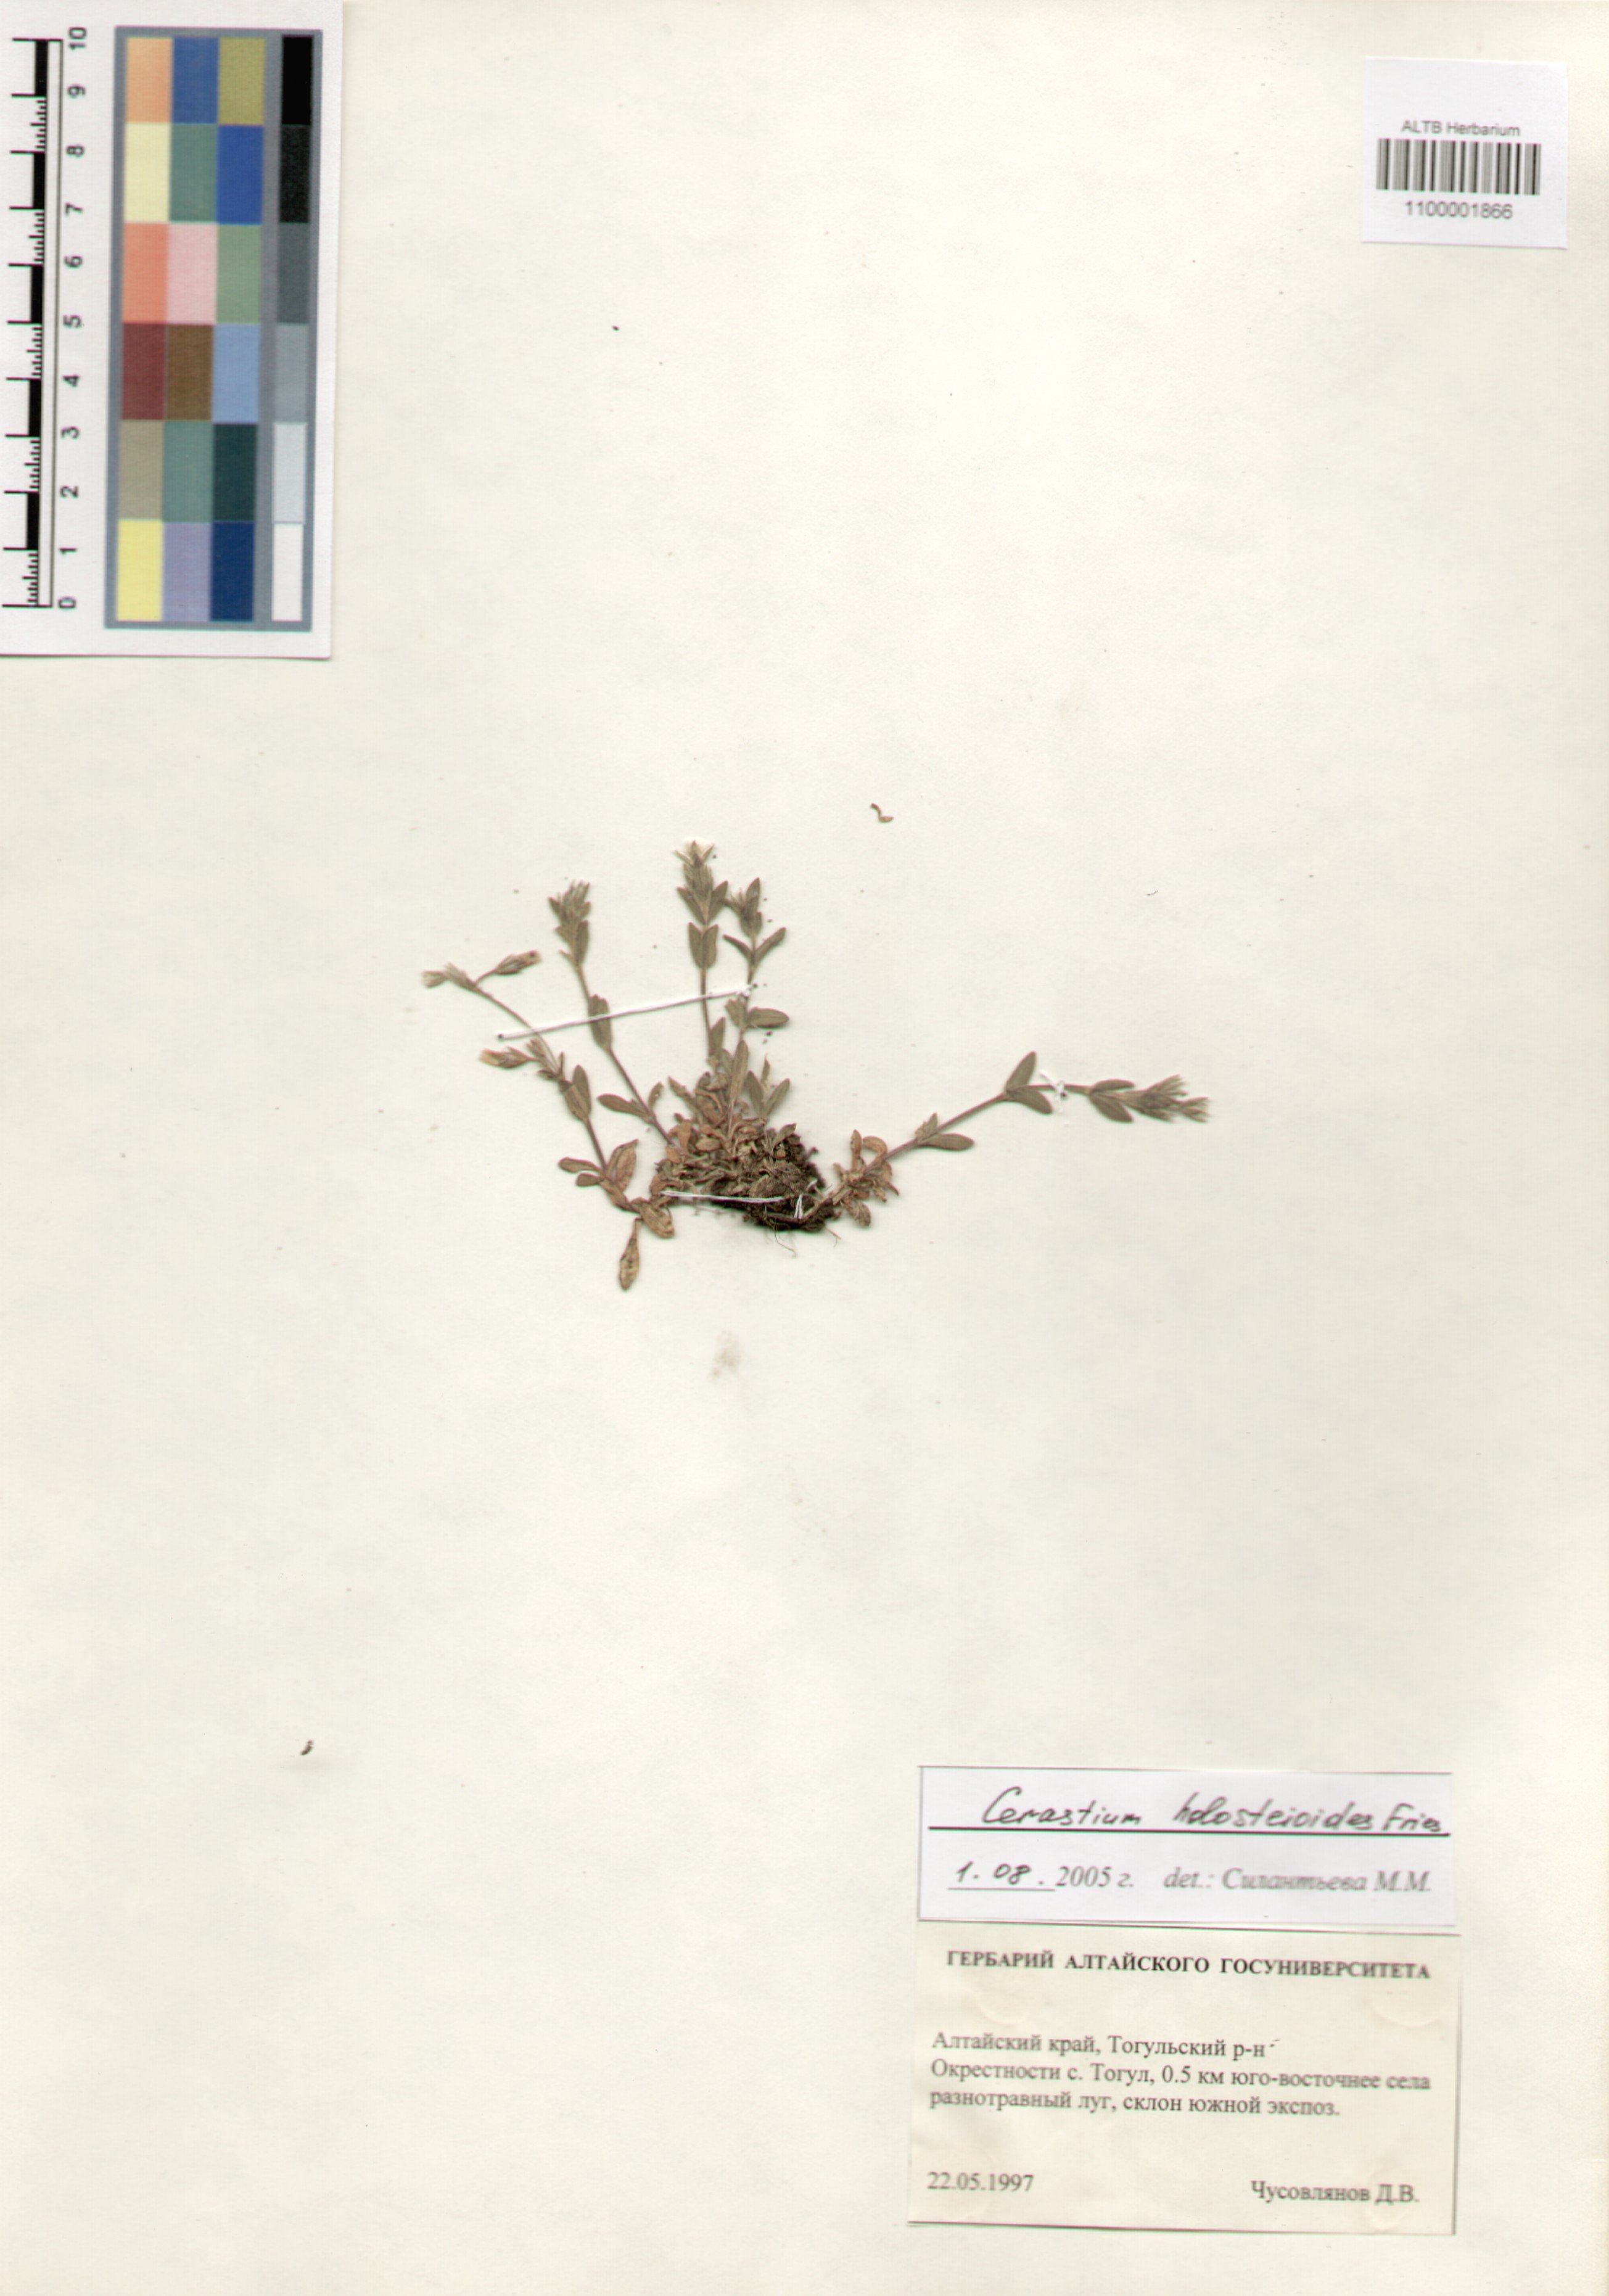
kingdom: Plantae
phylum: Tracheophyta
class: Magnoliopsida
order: Caryophyllales
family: Caryophyllaceae
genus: Cerastium
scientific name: Cerastium holosteoides
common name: Big chickweed
